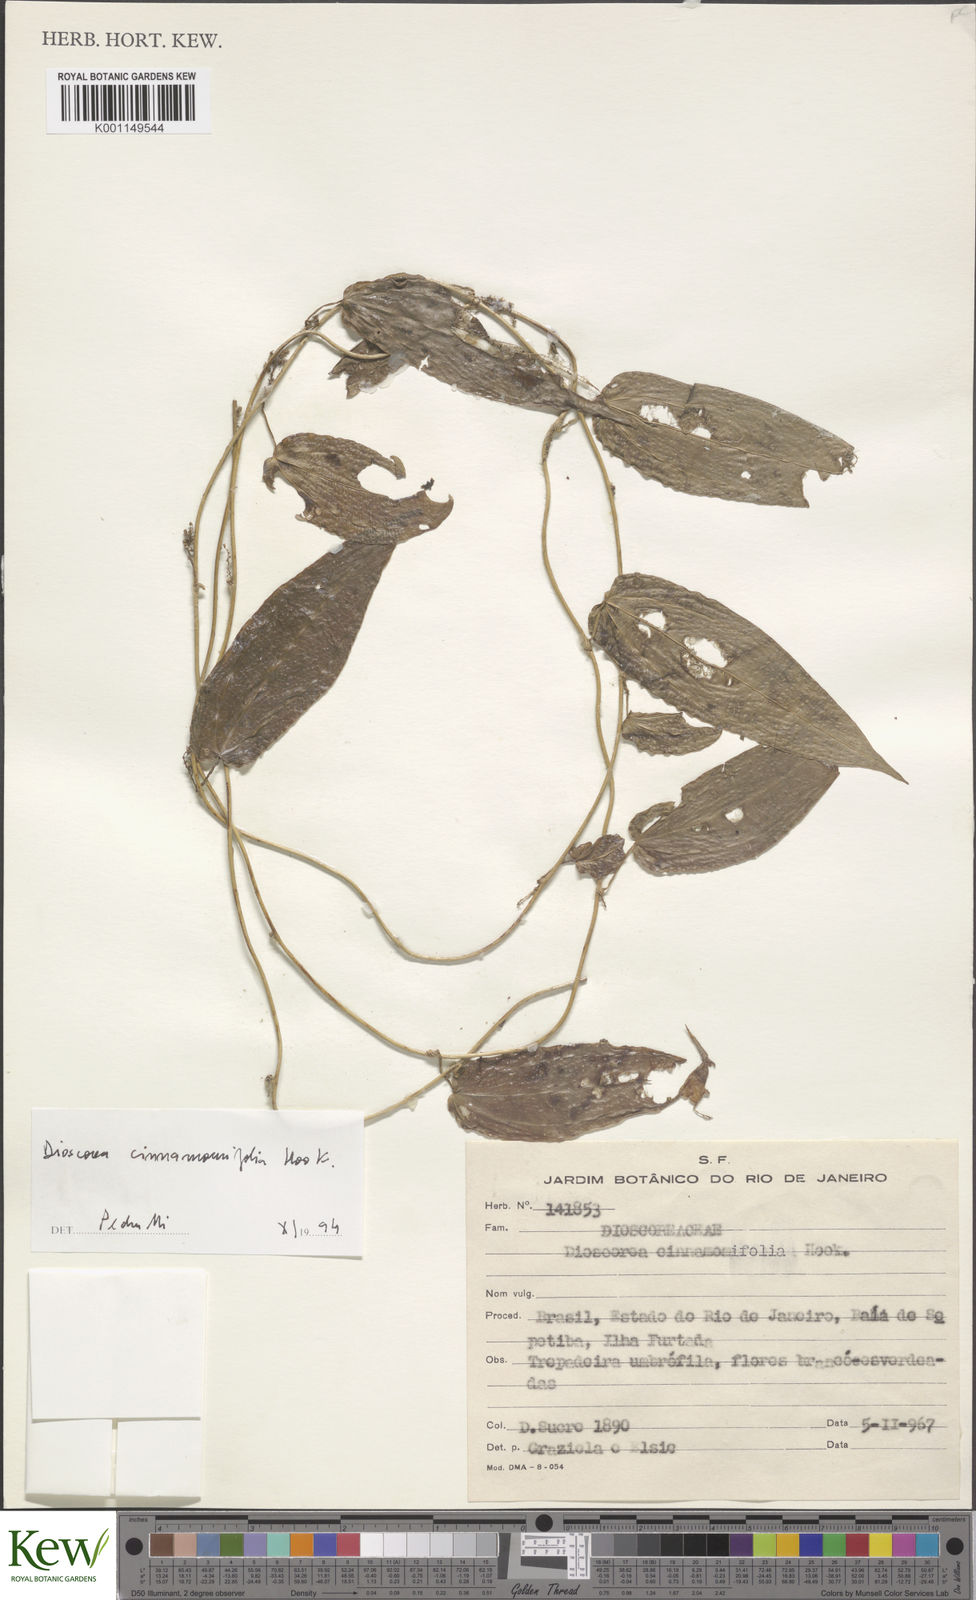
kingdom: Plantae
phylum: Tracheophyta
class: Liliopsida
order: Dioscoreales
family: Dioscoreaceae
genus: Dioscorea
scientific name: Dioscorea cinnamomifolia
